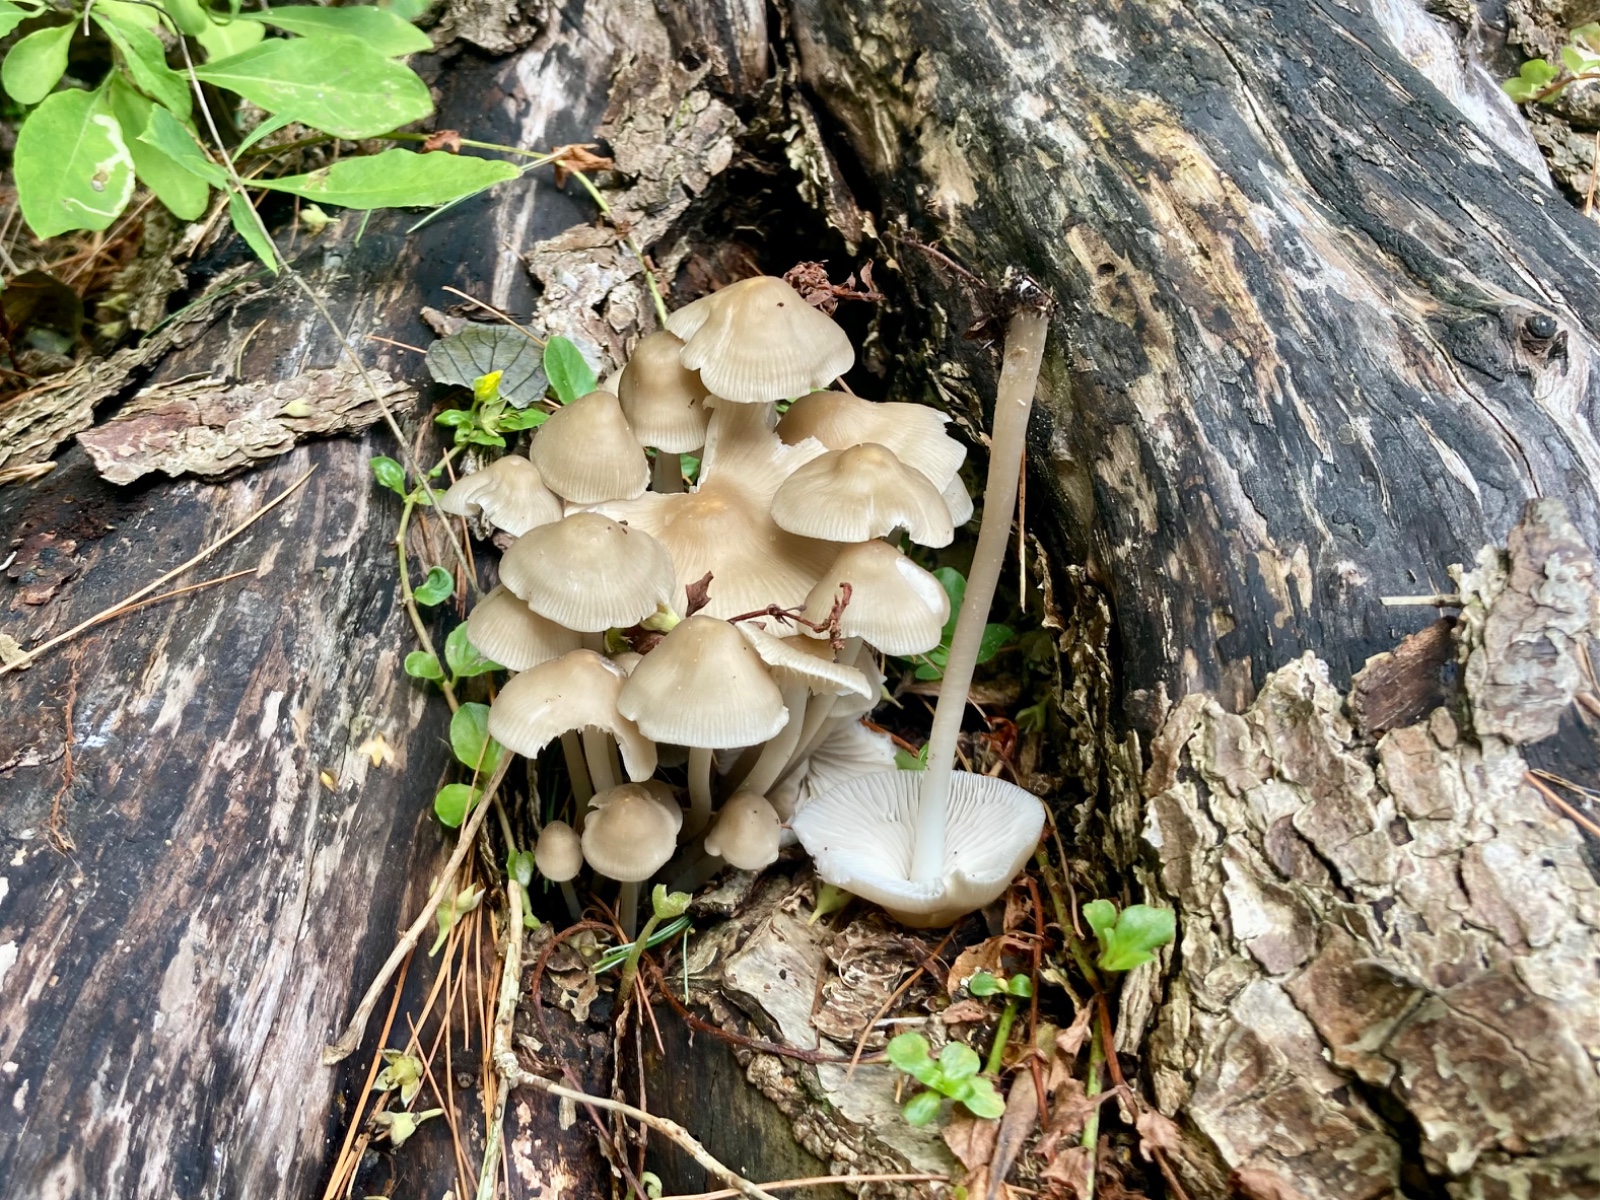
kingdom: Fungi
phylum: Basidiomycota
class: Agaricomycetes
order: Agaricales
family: Mycenaceae
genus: Mycena
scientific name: Mycena galericulata
